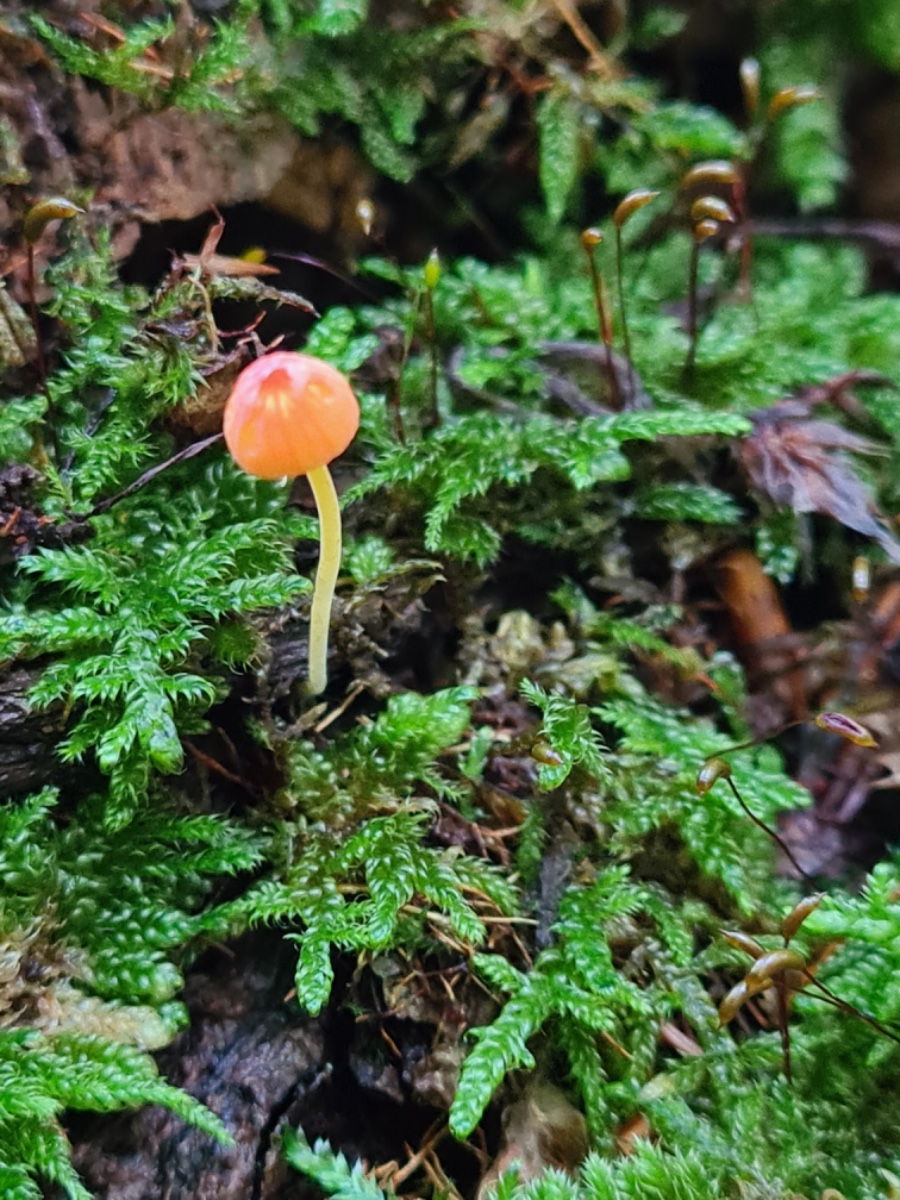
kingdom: Fungi
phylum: Basidiomycota
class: Agaricomycetes
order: Agaricales
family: Mycenaceae
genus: Mycena
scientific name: Mycena acicula
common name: orange huesvamp
